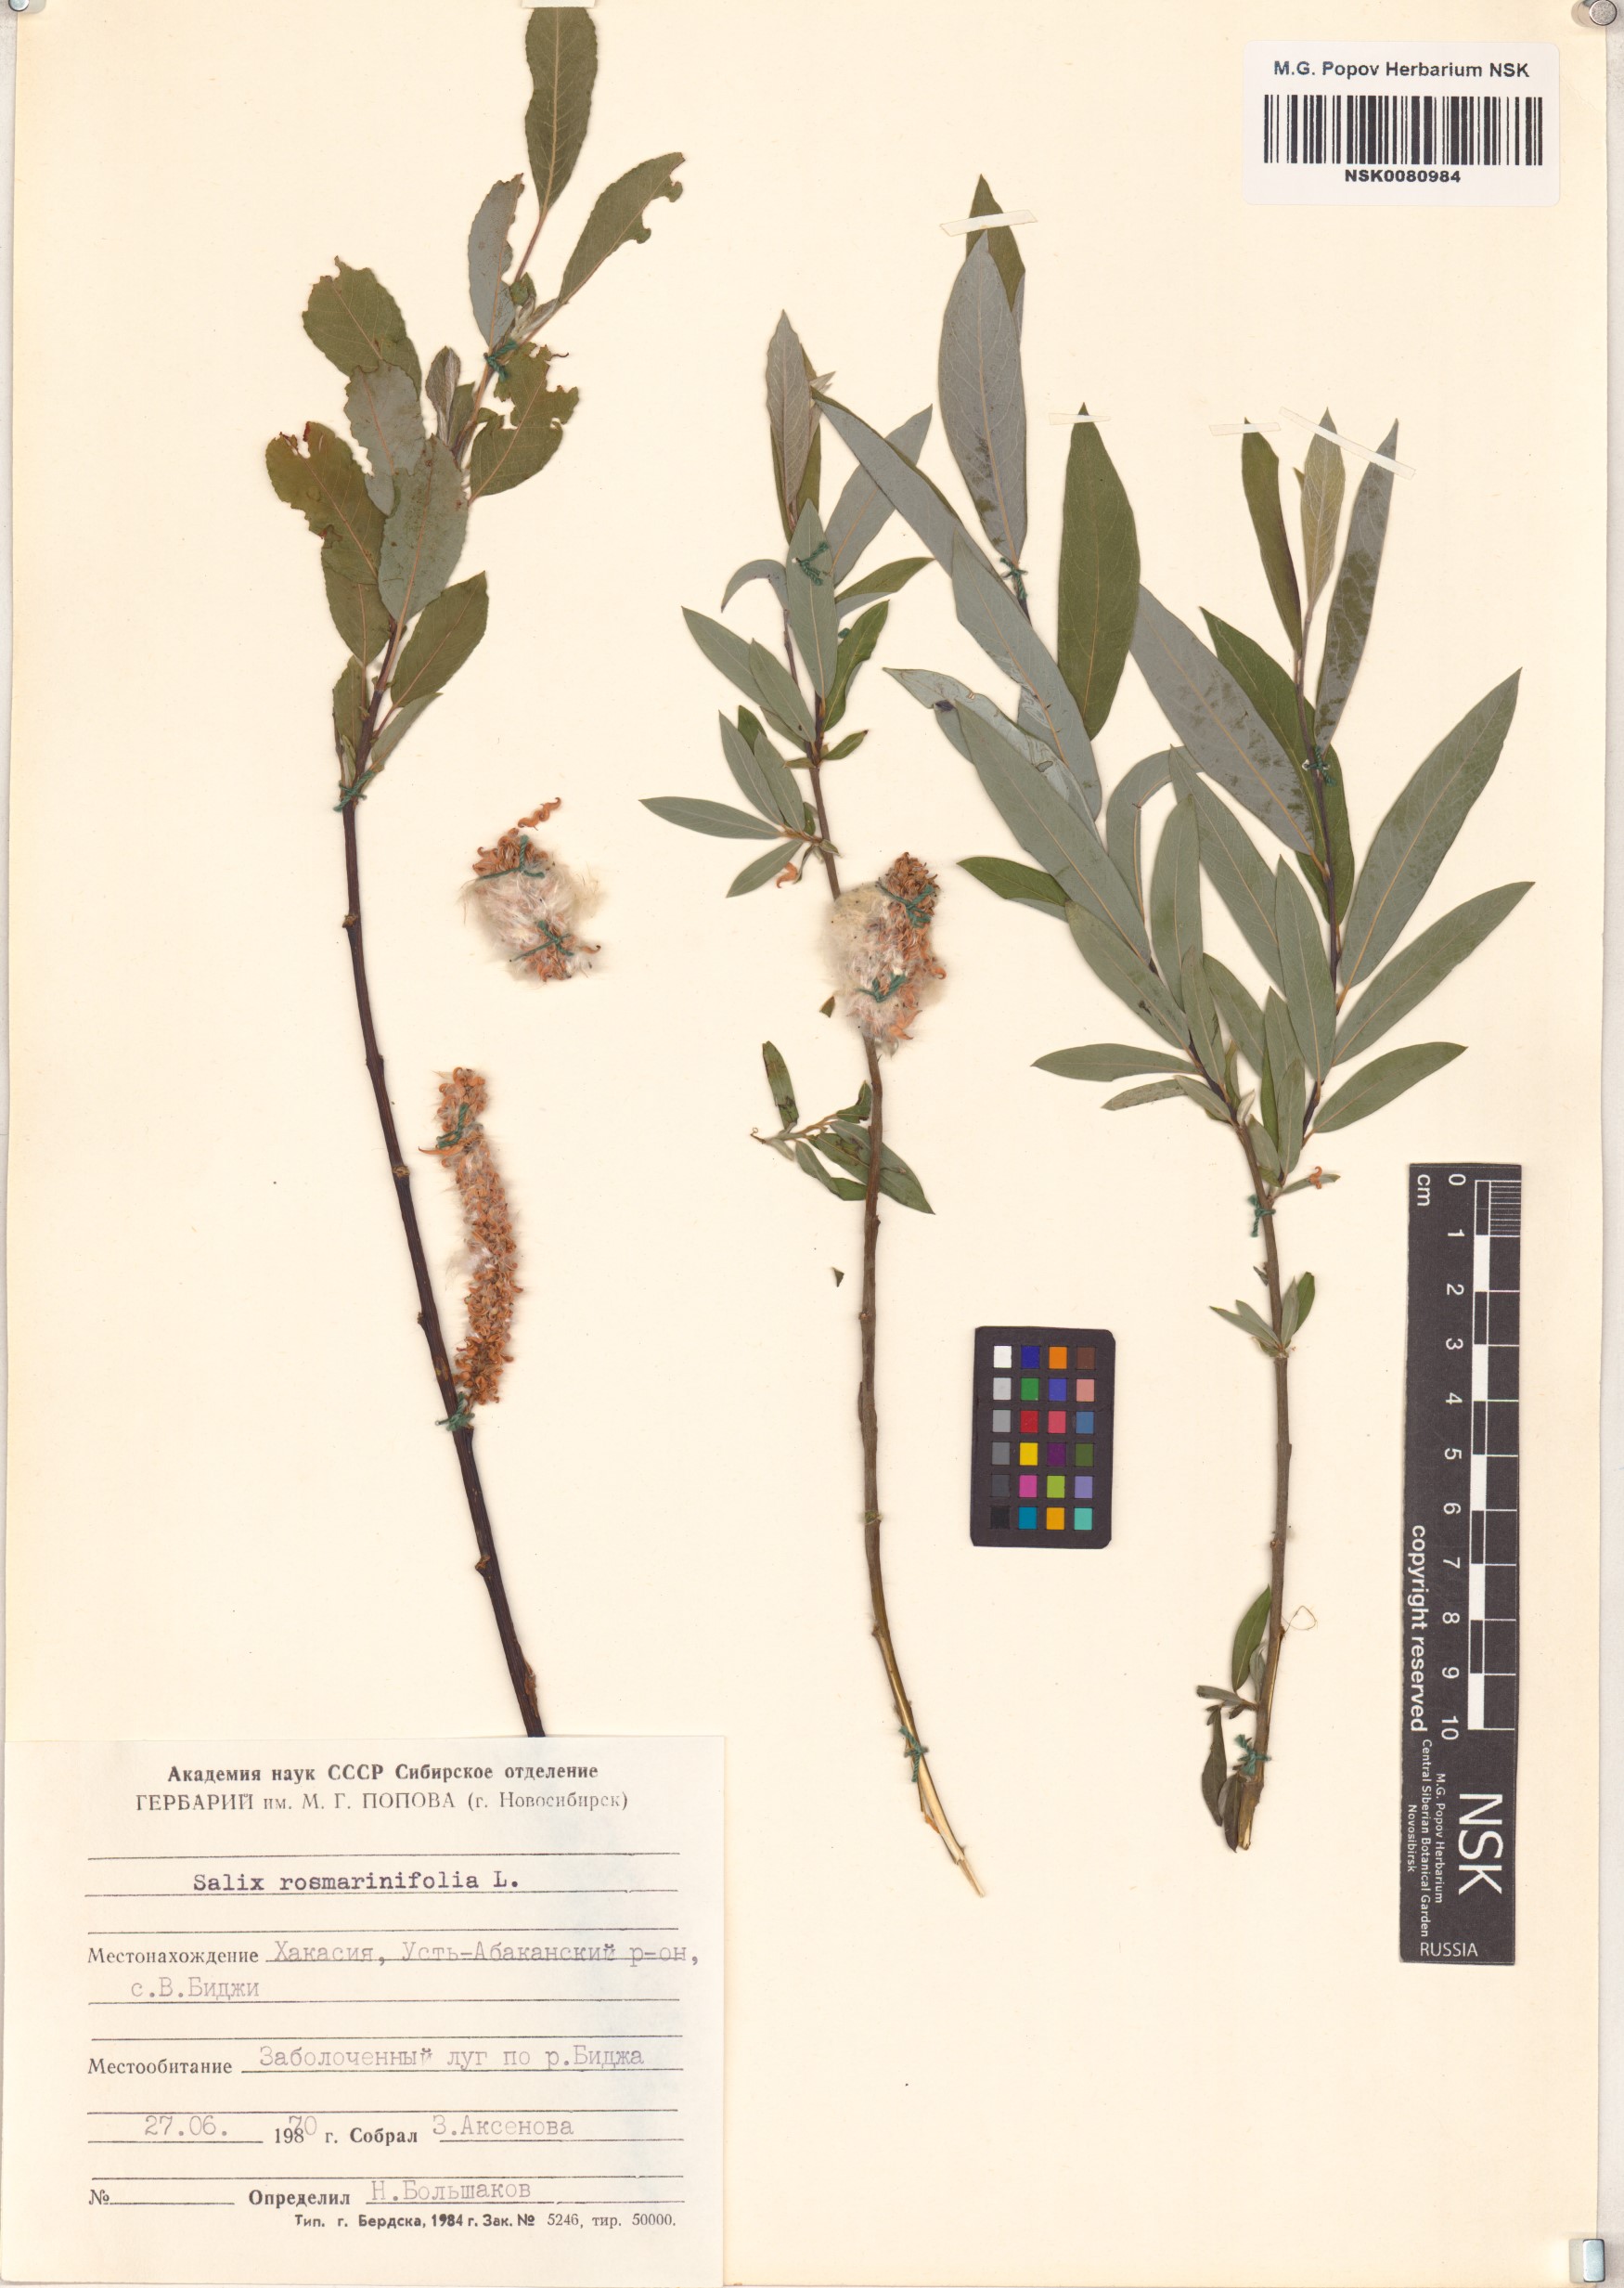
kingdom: Plantae
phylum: Tracheophyta
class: Magnoliopsida
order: Malpighiales
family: Salicaceae
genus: Salix
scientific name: Salix rosmarinifolia
